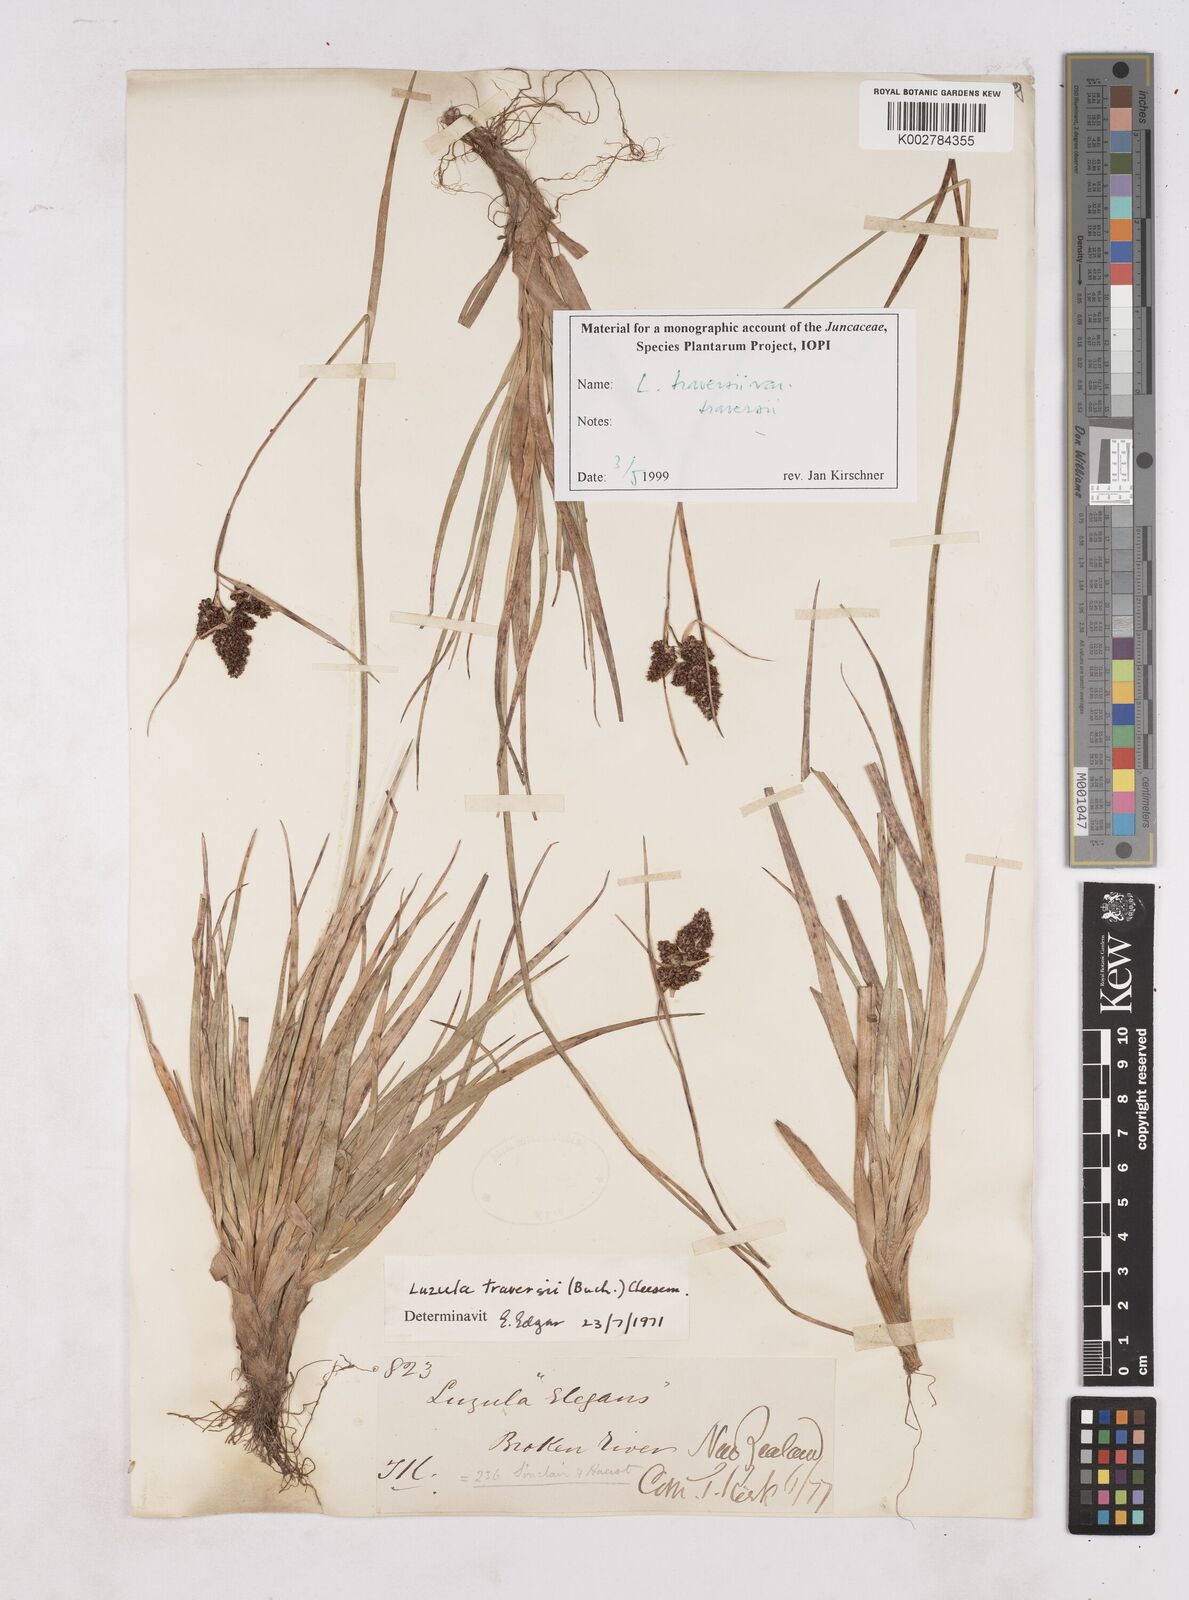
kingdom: Plantae
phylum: Tracheophyta
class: Liliopsida
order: Poales
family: Juncaceae
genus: Luzula
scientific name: Luzula traversii
